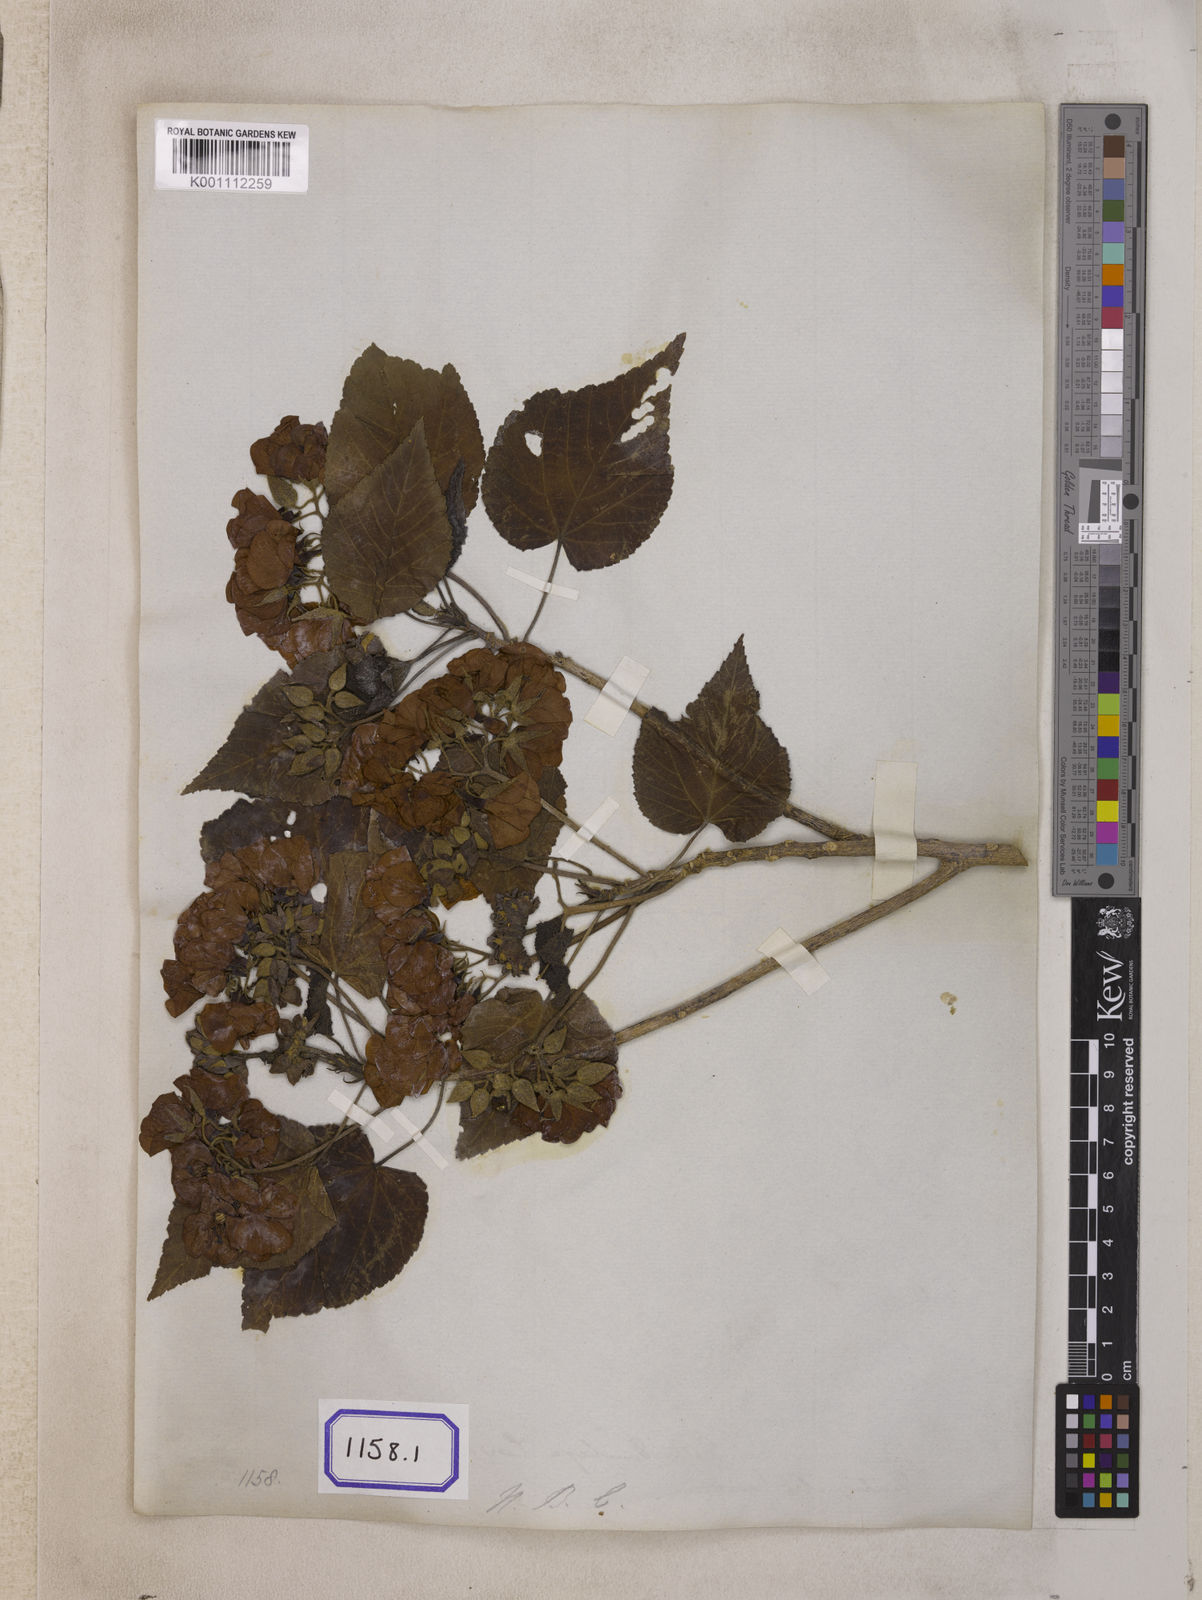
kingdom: Plantae
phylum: Tracheophyta
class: Magnoliopsida
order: Malvales
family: Malvaceae
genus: Dombeya
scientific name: Dombeya acutangula
